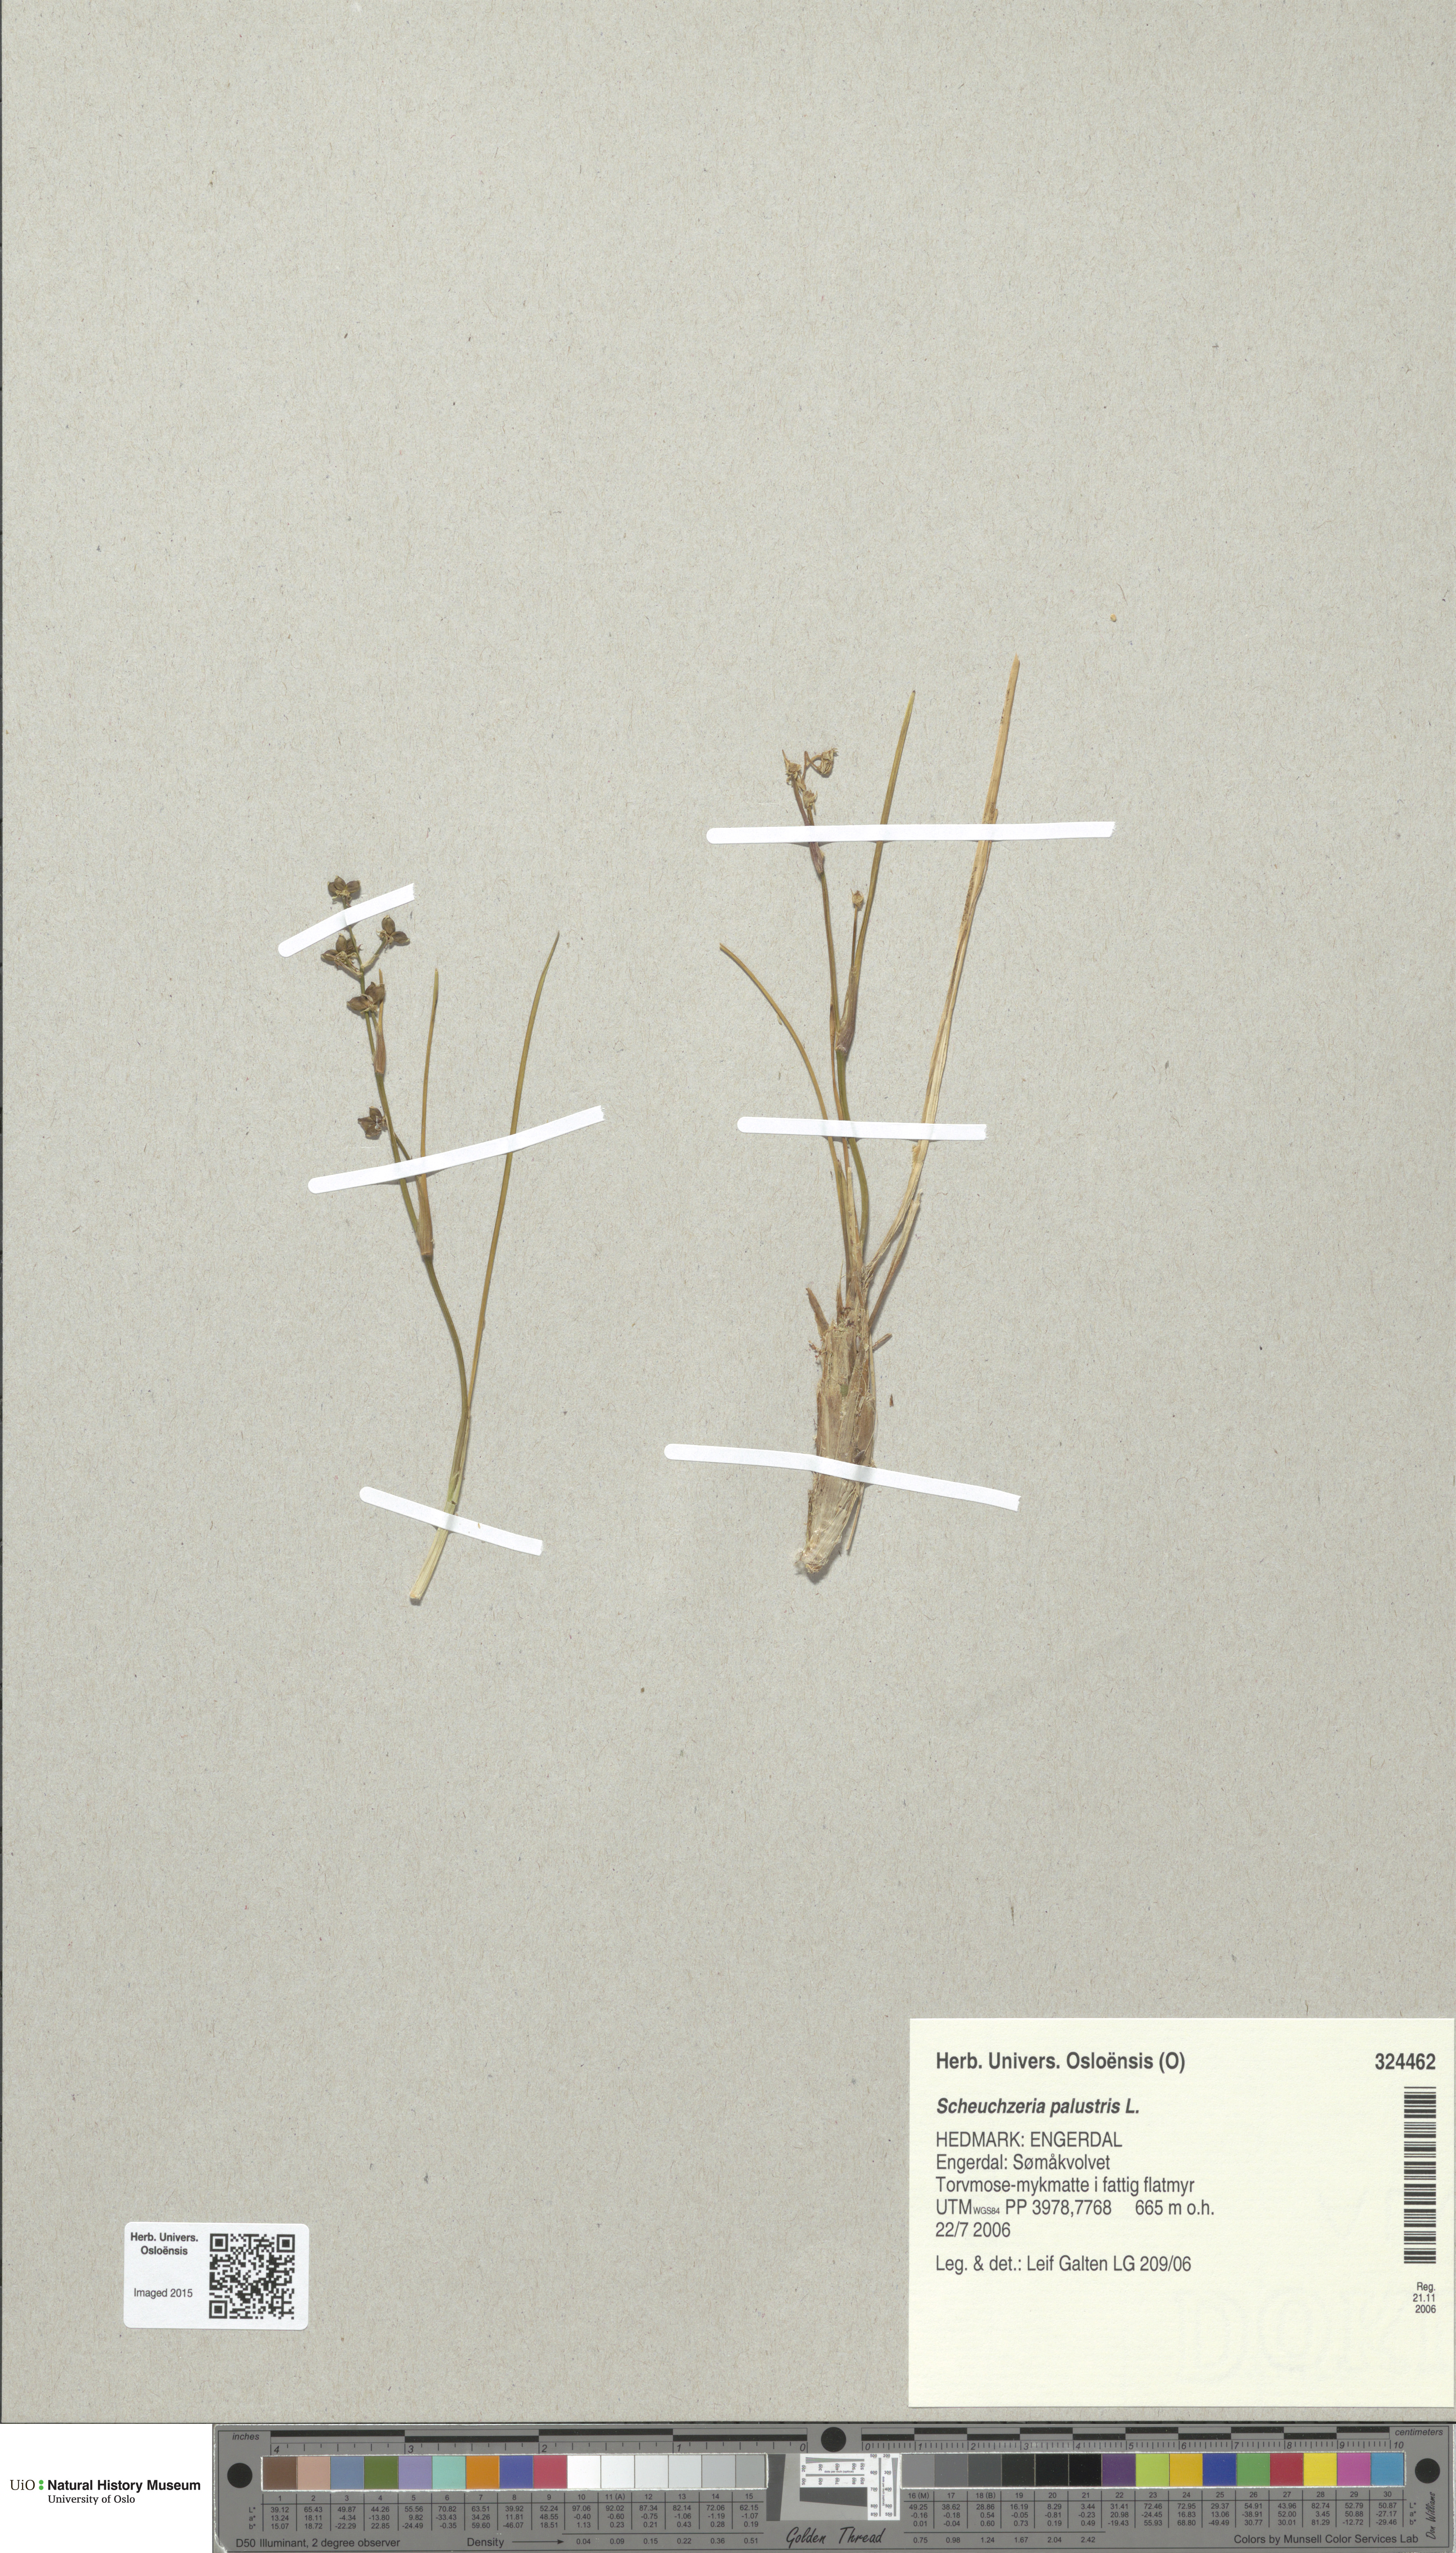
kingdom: Plantae
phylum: Tracheophyta
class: Liliopsida
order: Alismatales
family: Scheuchzeriaceae
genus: Scheuchzeria
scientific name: Scheuchzeria palustris
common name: Rannoch-rush
